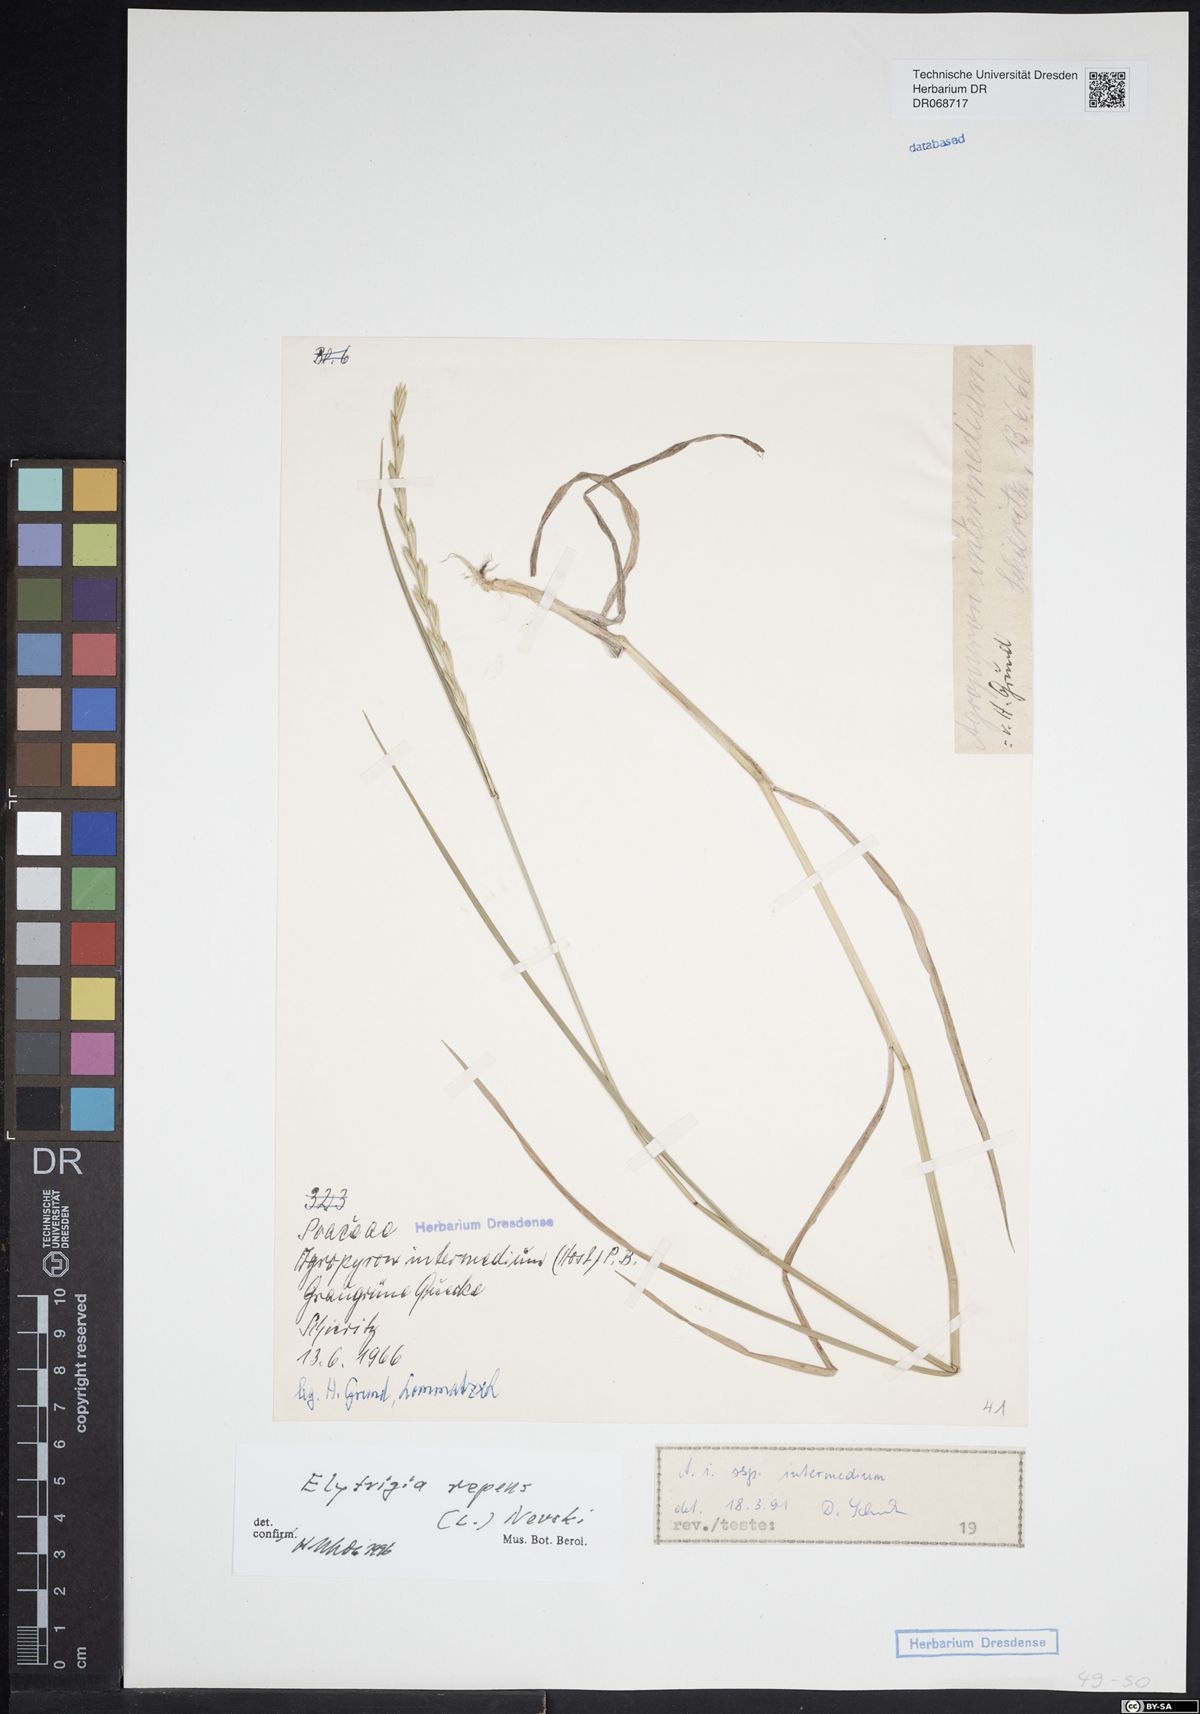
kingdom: Plantae
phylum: Tracheophyta
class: Liliopsida
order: Poales
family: Poaceae
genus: Elymus
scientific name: Elymus repens
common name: Quackgrass
